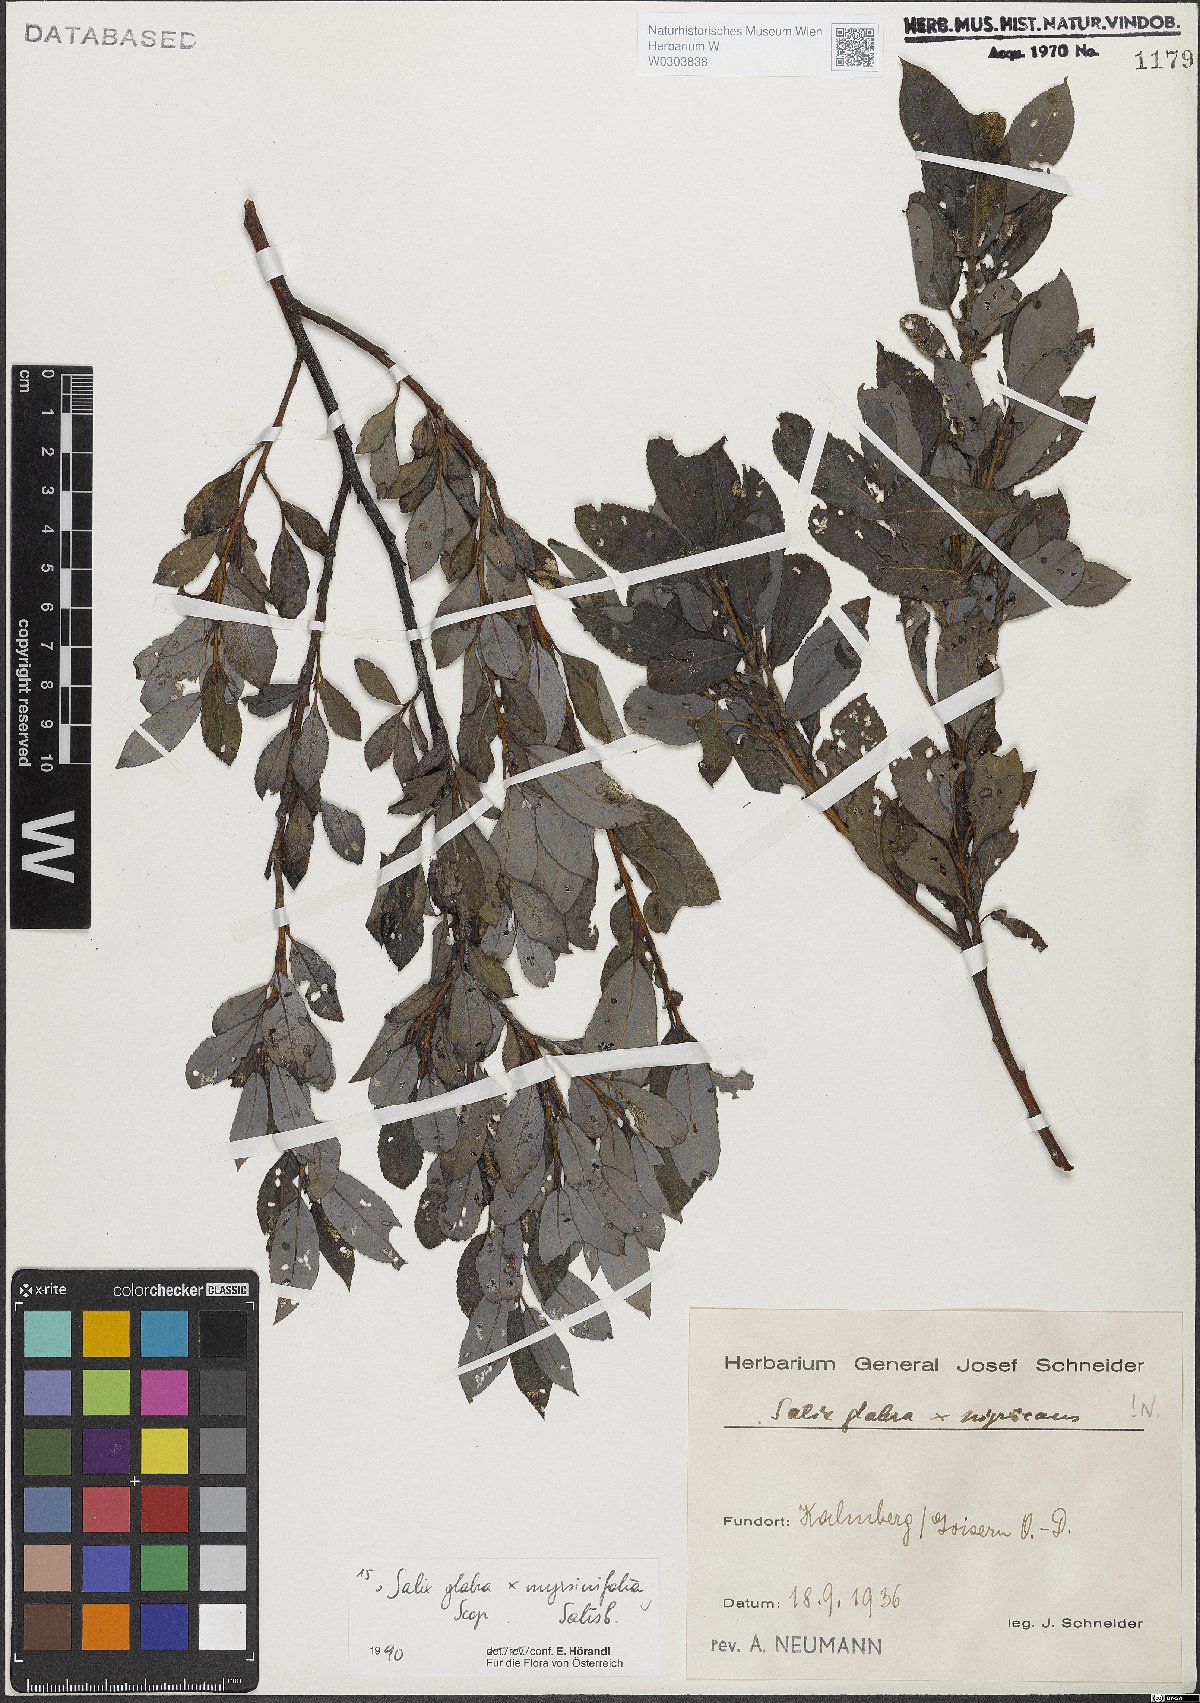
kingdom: Plantae
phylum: Tracheophyta
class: Magnoliopsida
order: Malpighiales
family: Salicaceae
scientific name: Salicaceae
